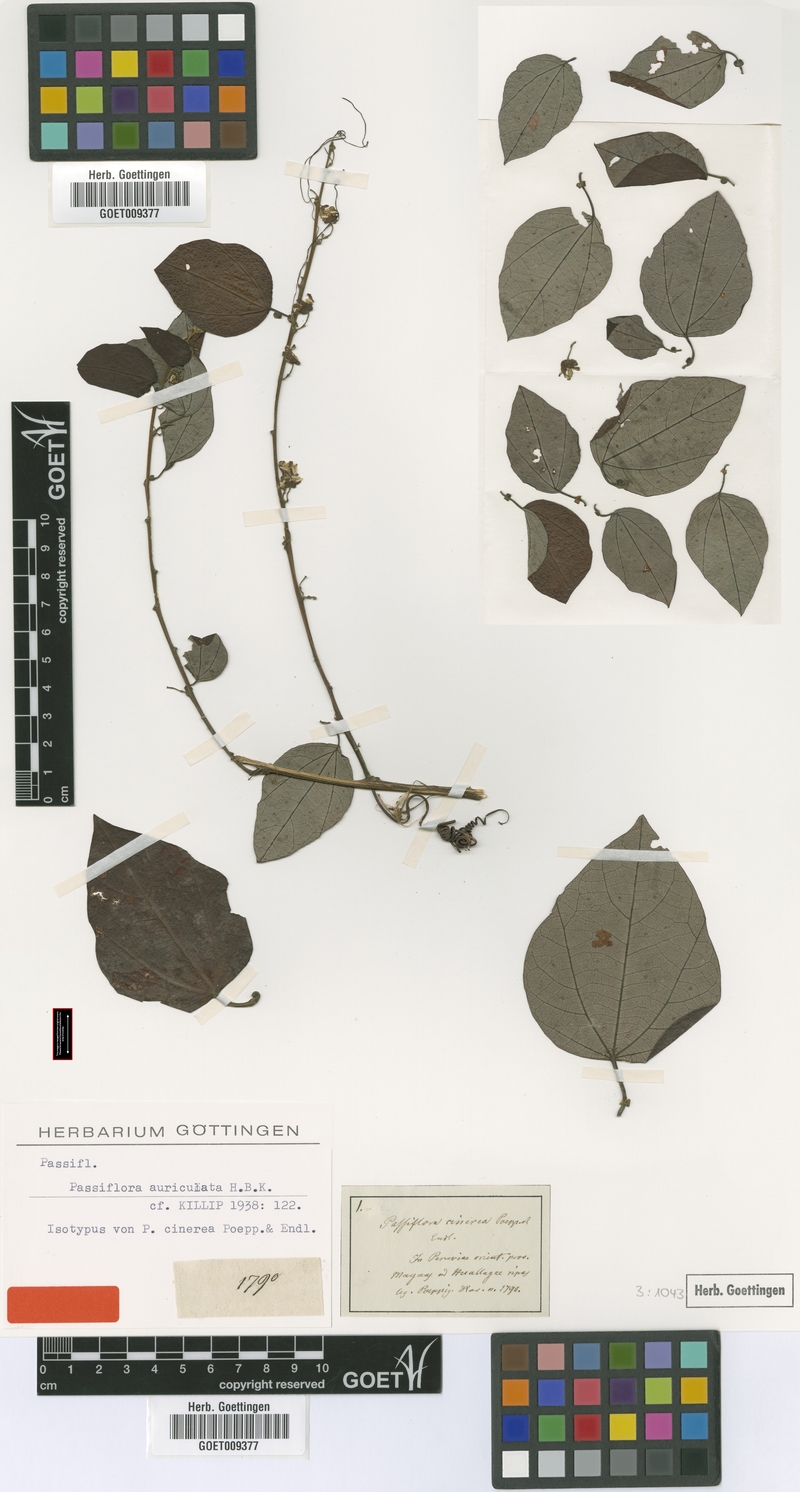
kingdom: Plantae
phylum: Tracheophyta
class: Magnoliopsida
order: Malpighiales
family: Passifloraceae
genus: Passiflora
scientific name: Passiflora auriculata
